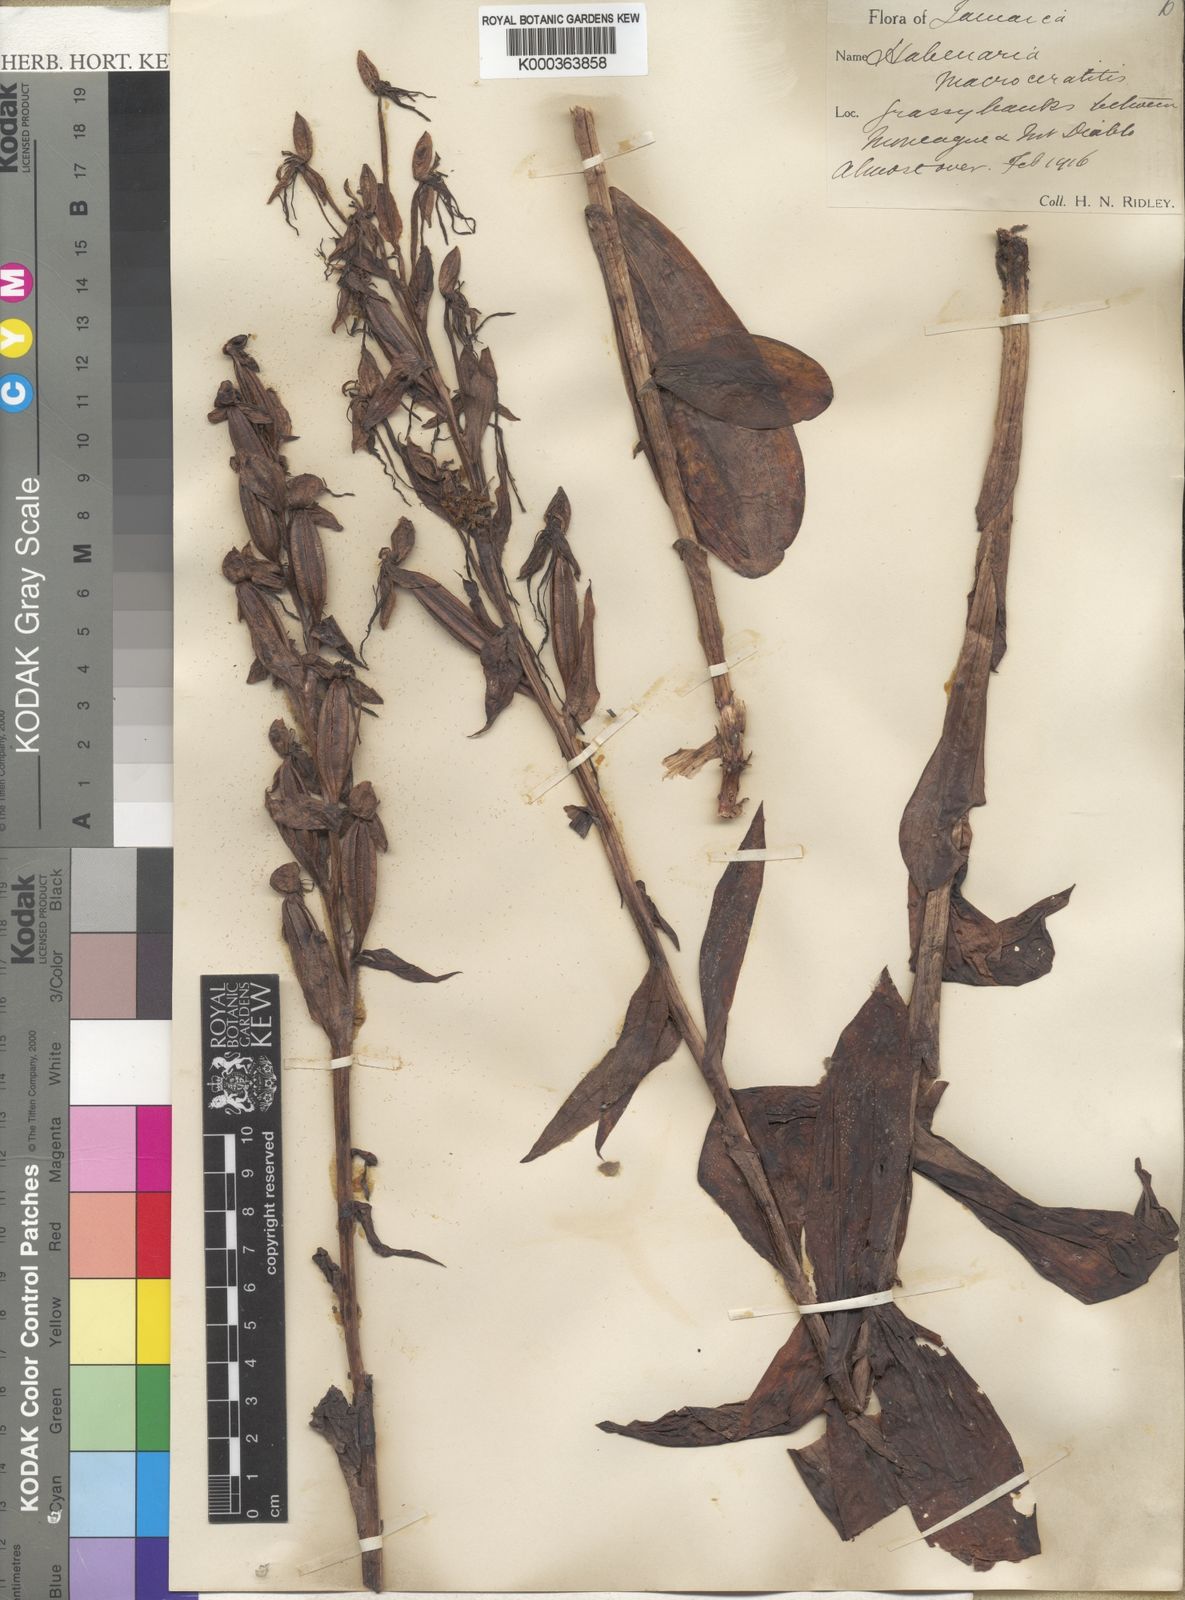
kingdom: Plantae
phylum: Tracheophyta
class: Liliopsida
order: Asparagales
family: Orchidaceae
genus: Habenaria
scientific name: Habenaria
